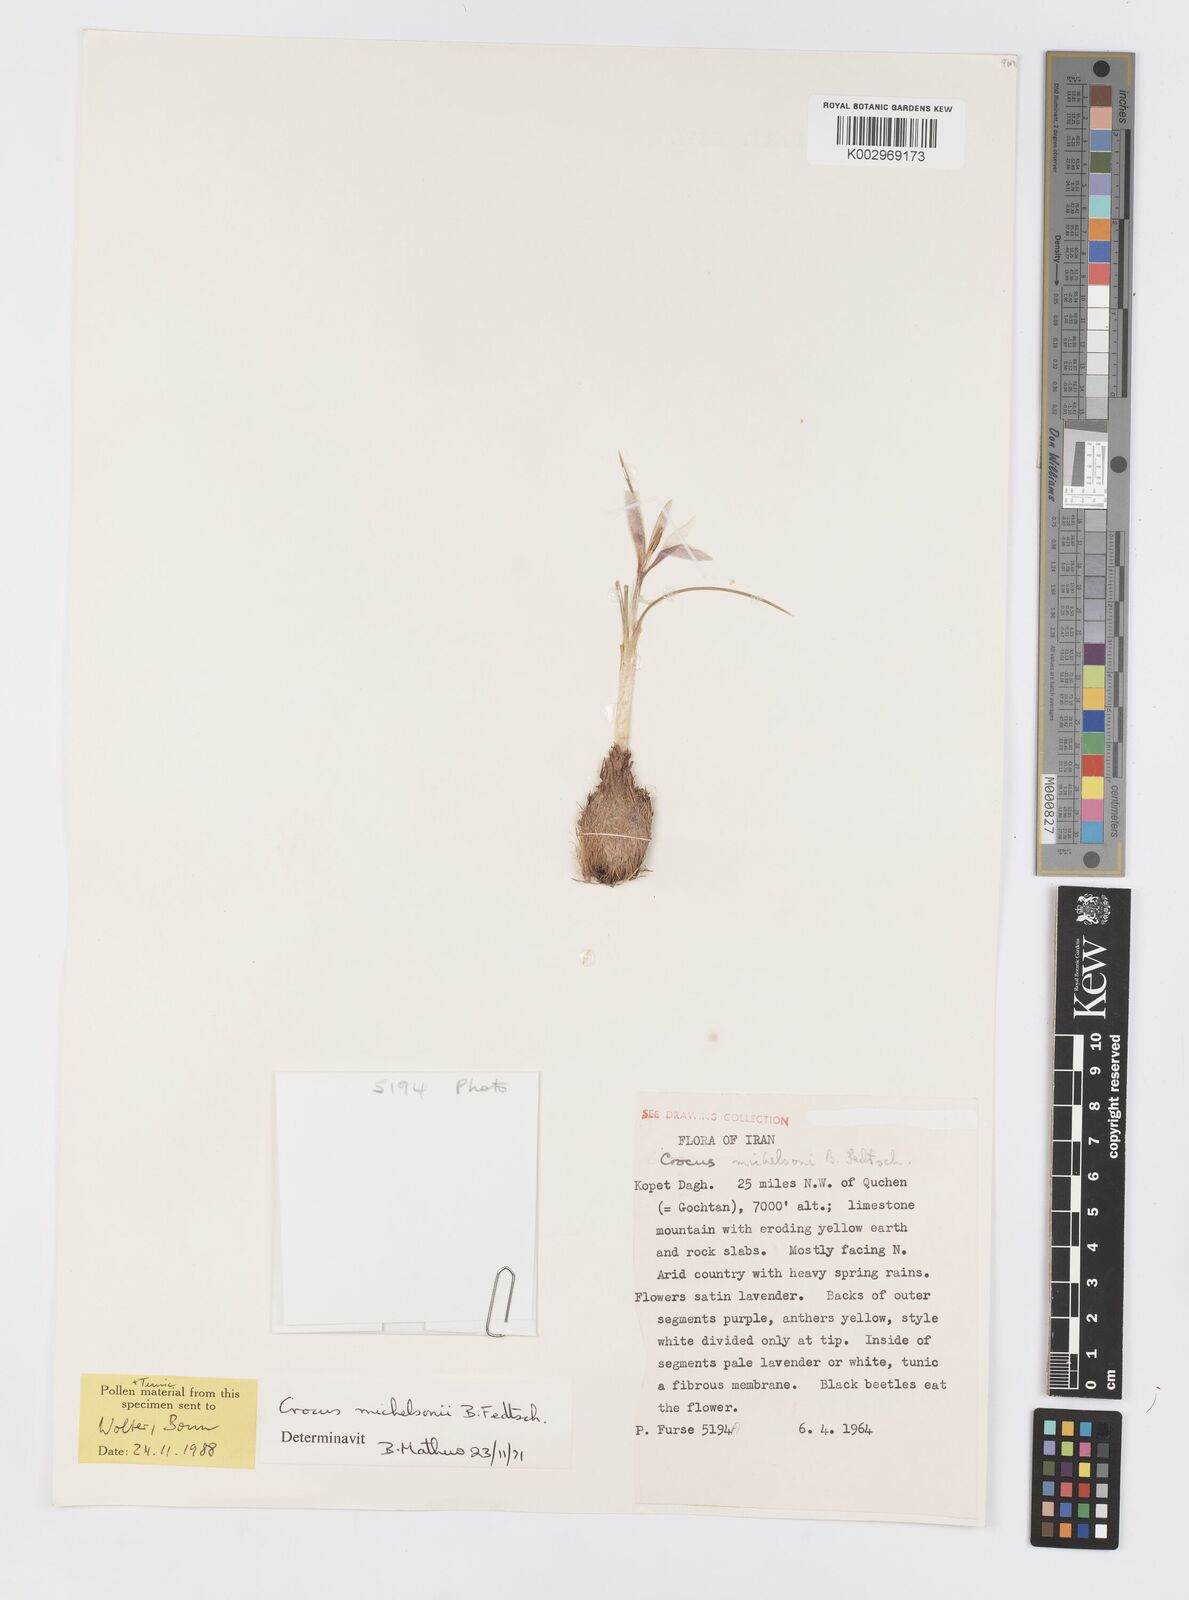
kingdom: Plantae
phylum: Tracheophyta
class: Liliopsida
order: Asparagales
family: Iridaceae
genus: Crocus
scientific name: Crocus michelsonii
